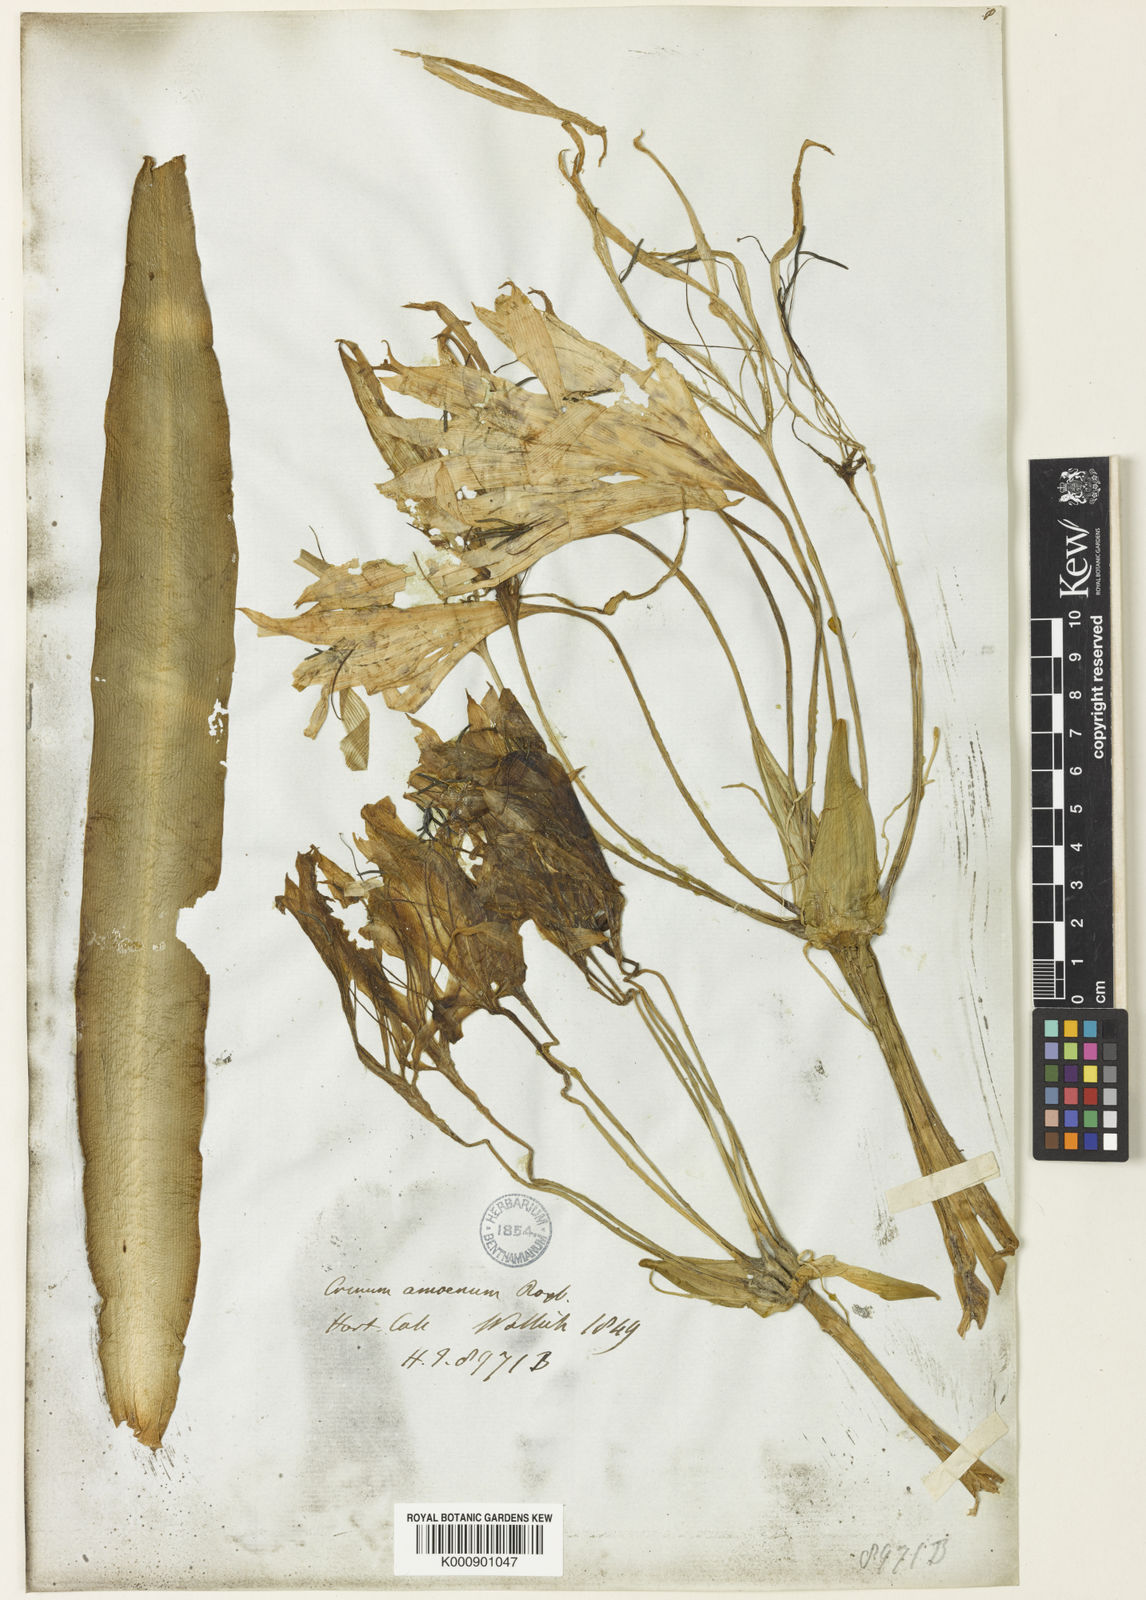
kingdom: Plantae
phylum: Tracheophyta
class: Liliopsida
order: Asparagales
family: Amaryllidaceae
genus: Crinum
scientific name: Crinum amoenum
